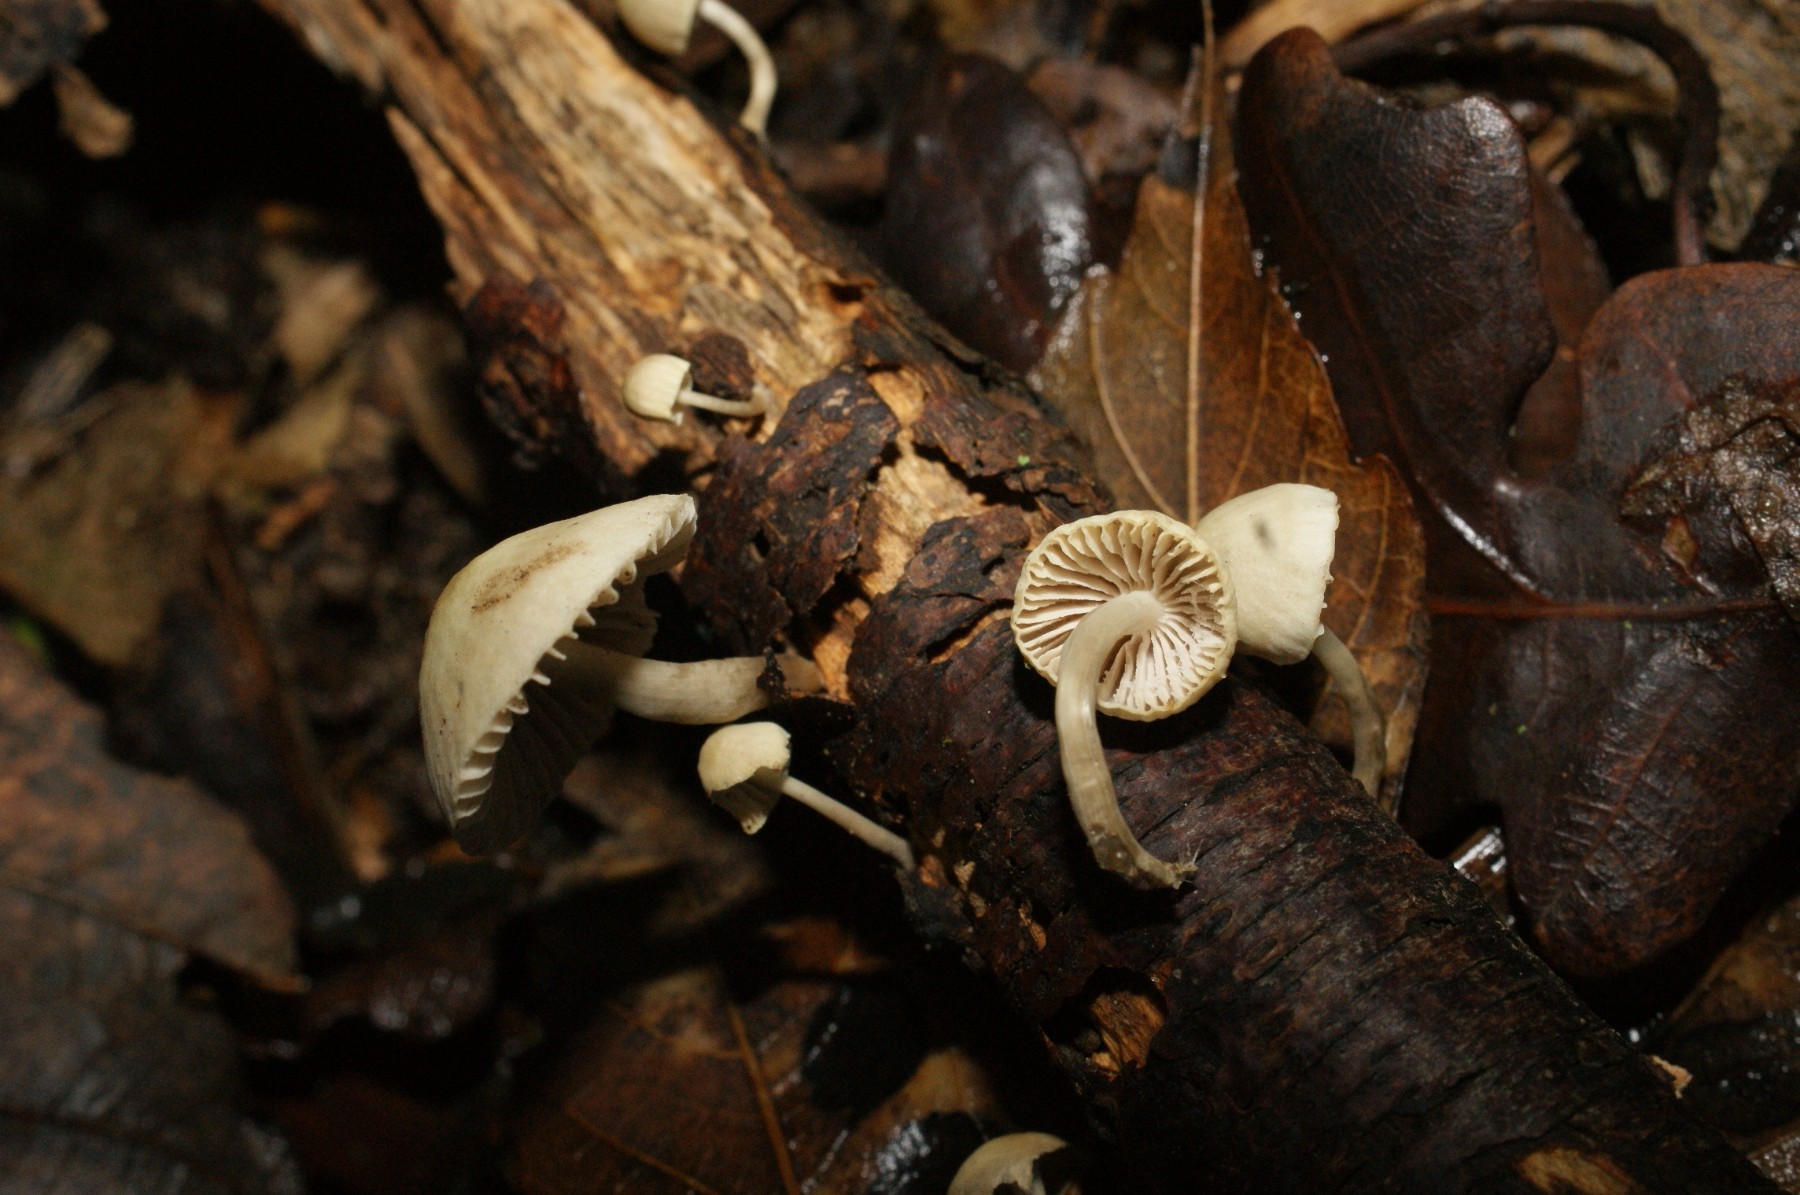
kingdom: Fungi
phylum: Basidiomycota
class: Agaricomycetes
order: Agaricales
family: Mycenaceae
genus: Mycena
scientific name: Mycena arcangeliana
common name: oliven-huesvamp
